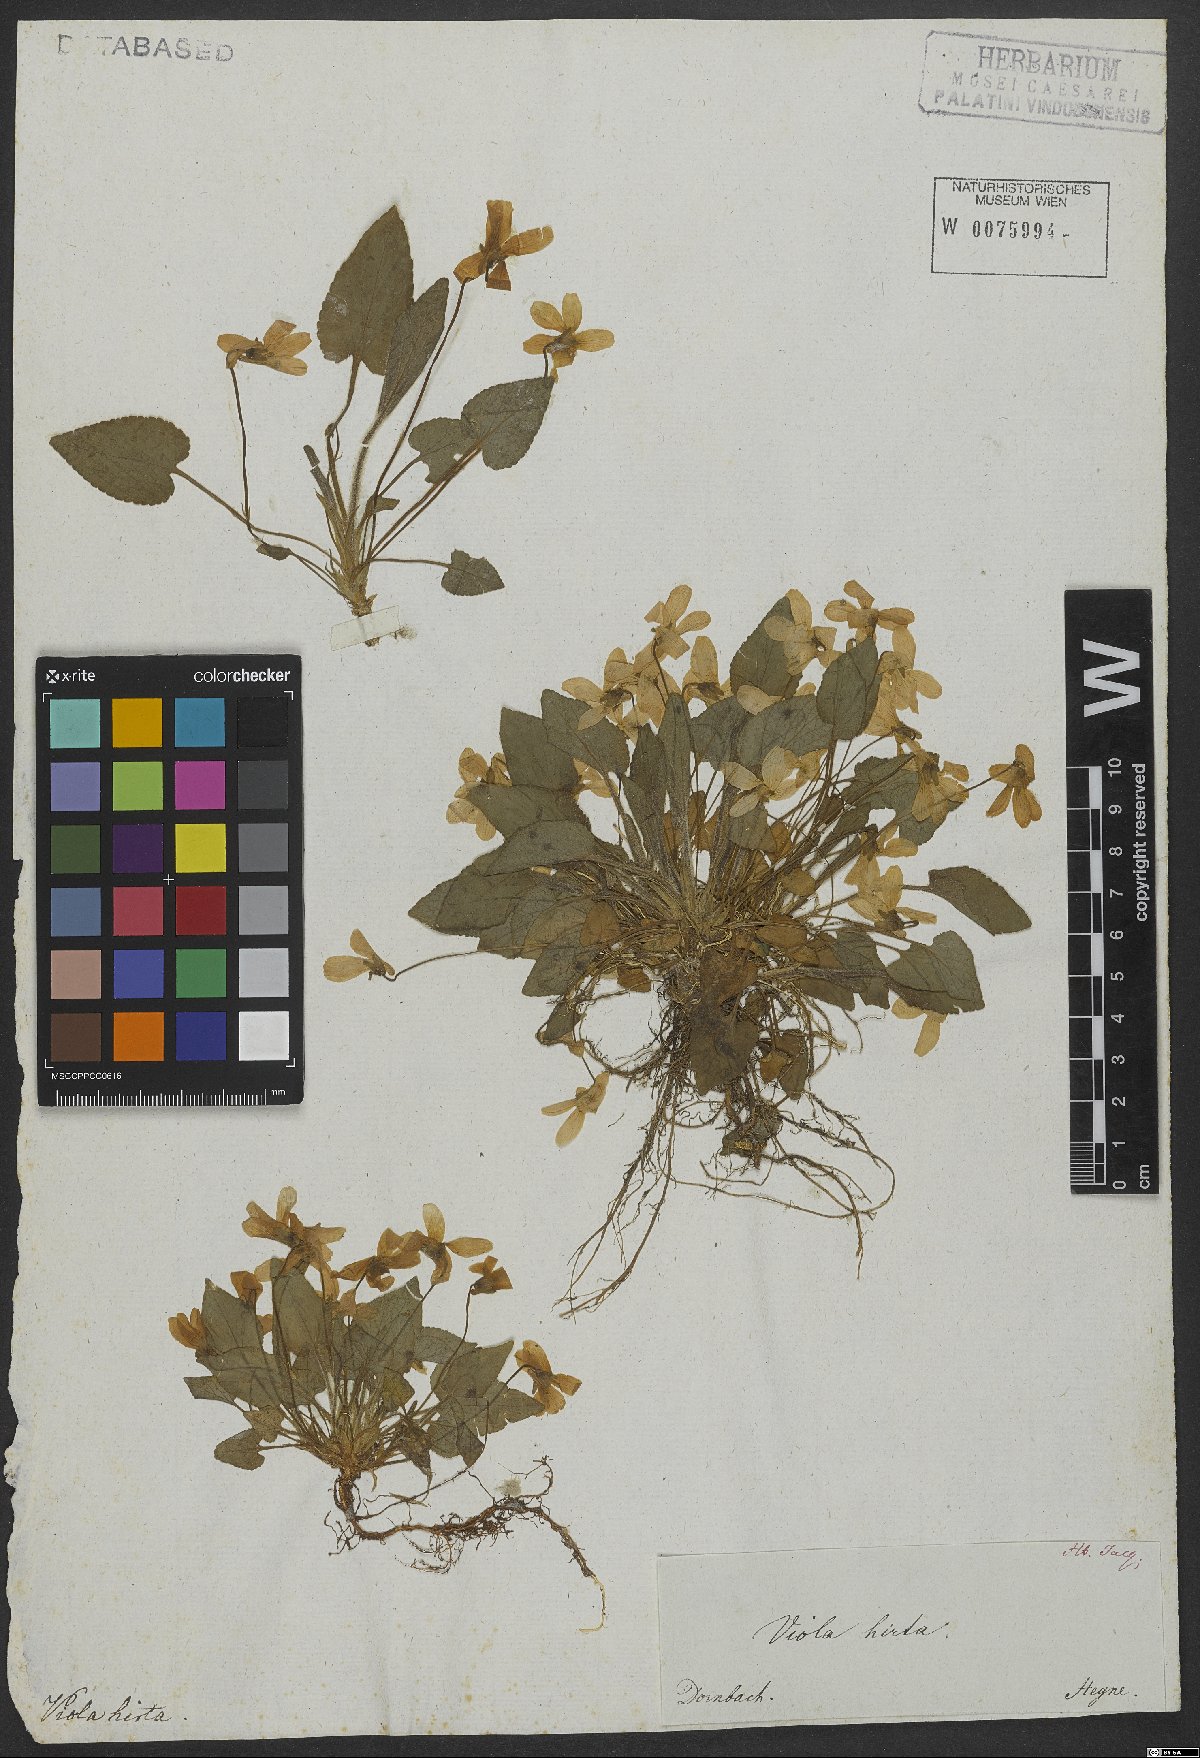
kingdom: Plantae
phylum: Tracheophyta
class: Magnoliopsida
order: Malpighiales
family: Violaceae
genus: Viola
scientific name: Viola hirta
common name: Hairy violet
